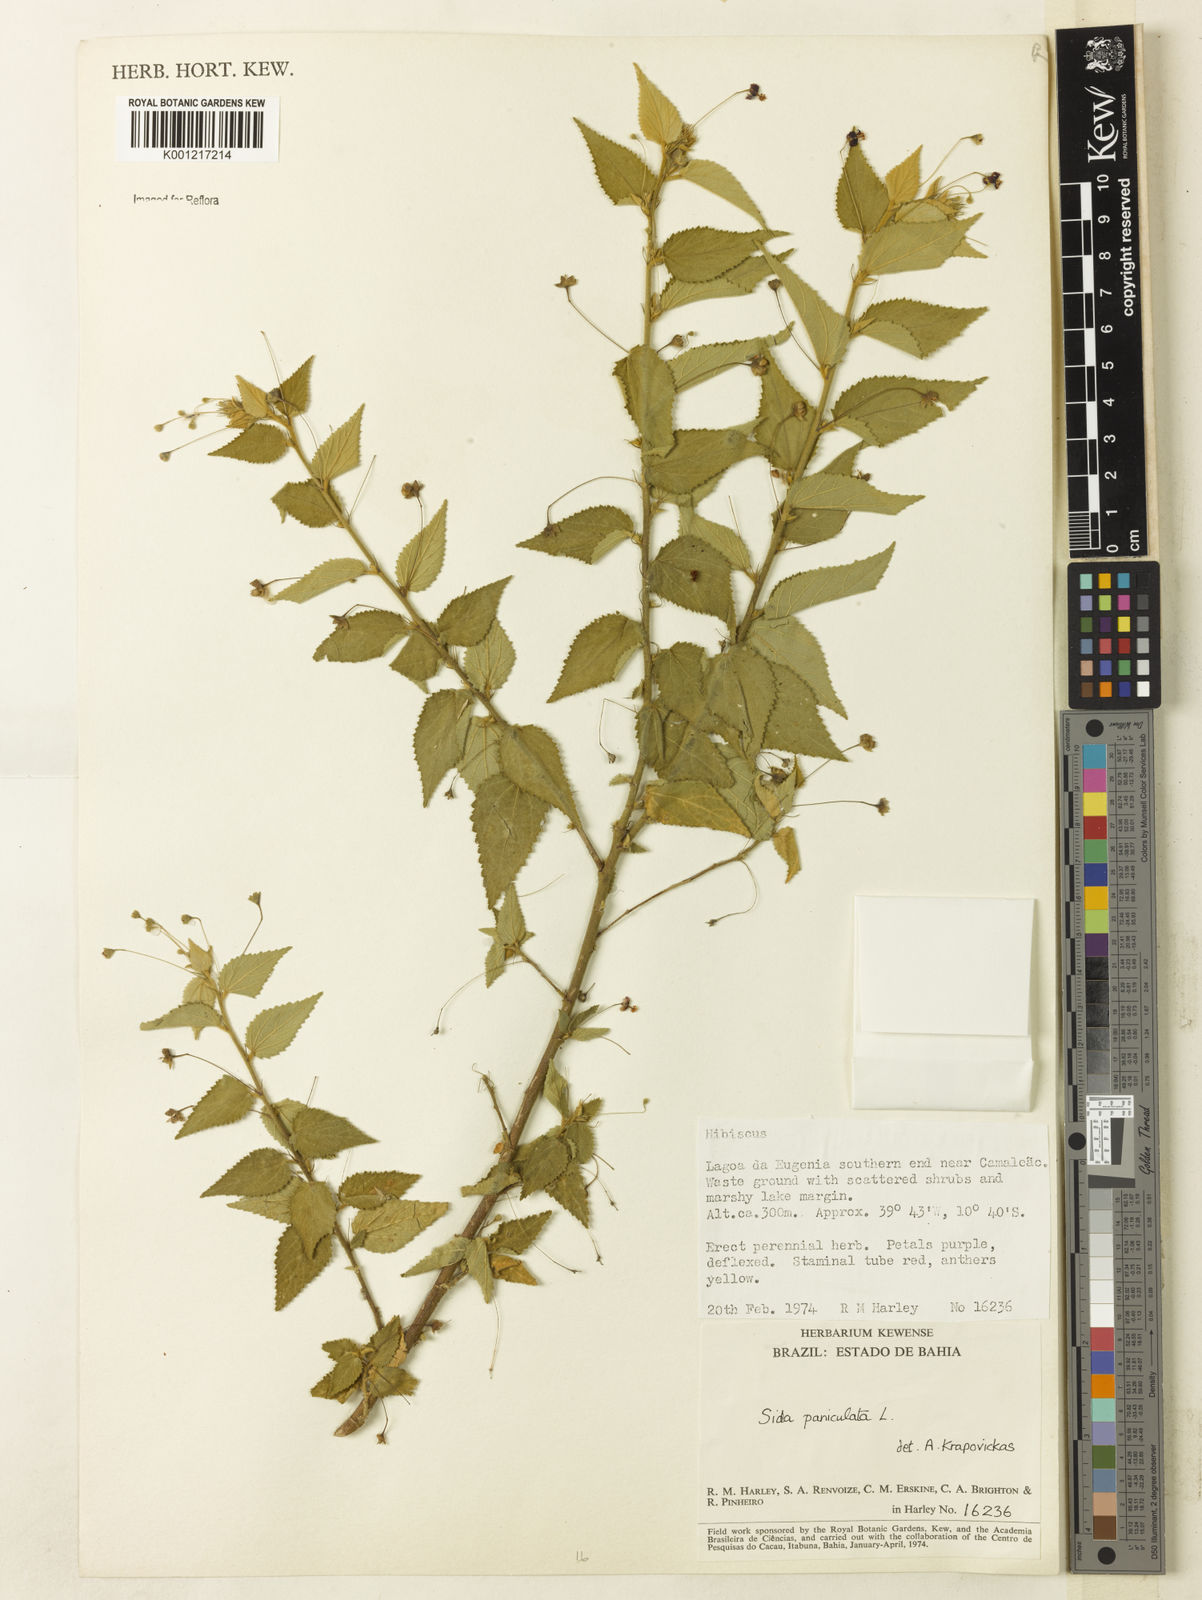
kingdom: Plantae
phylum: Tracheophyta
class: Magnoliopsida
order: Malvales
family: Malvaceae
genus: Sidastrum
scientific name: Sidastrum paniculatum
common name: Panicled sandmallow
